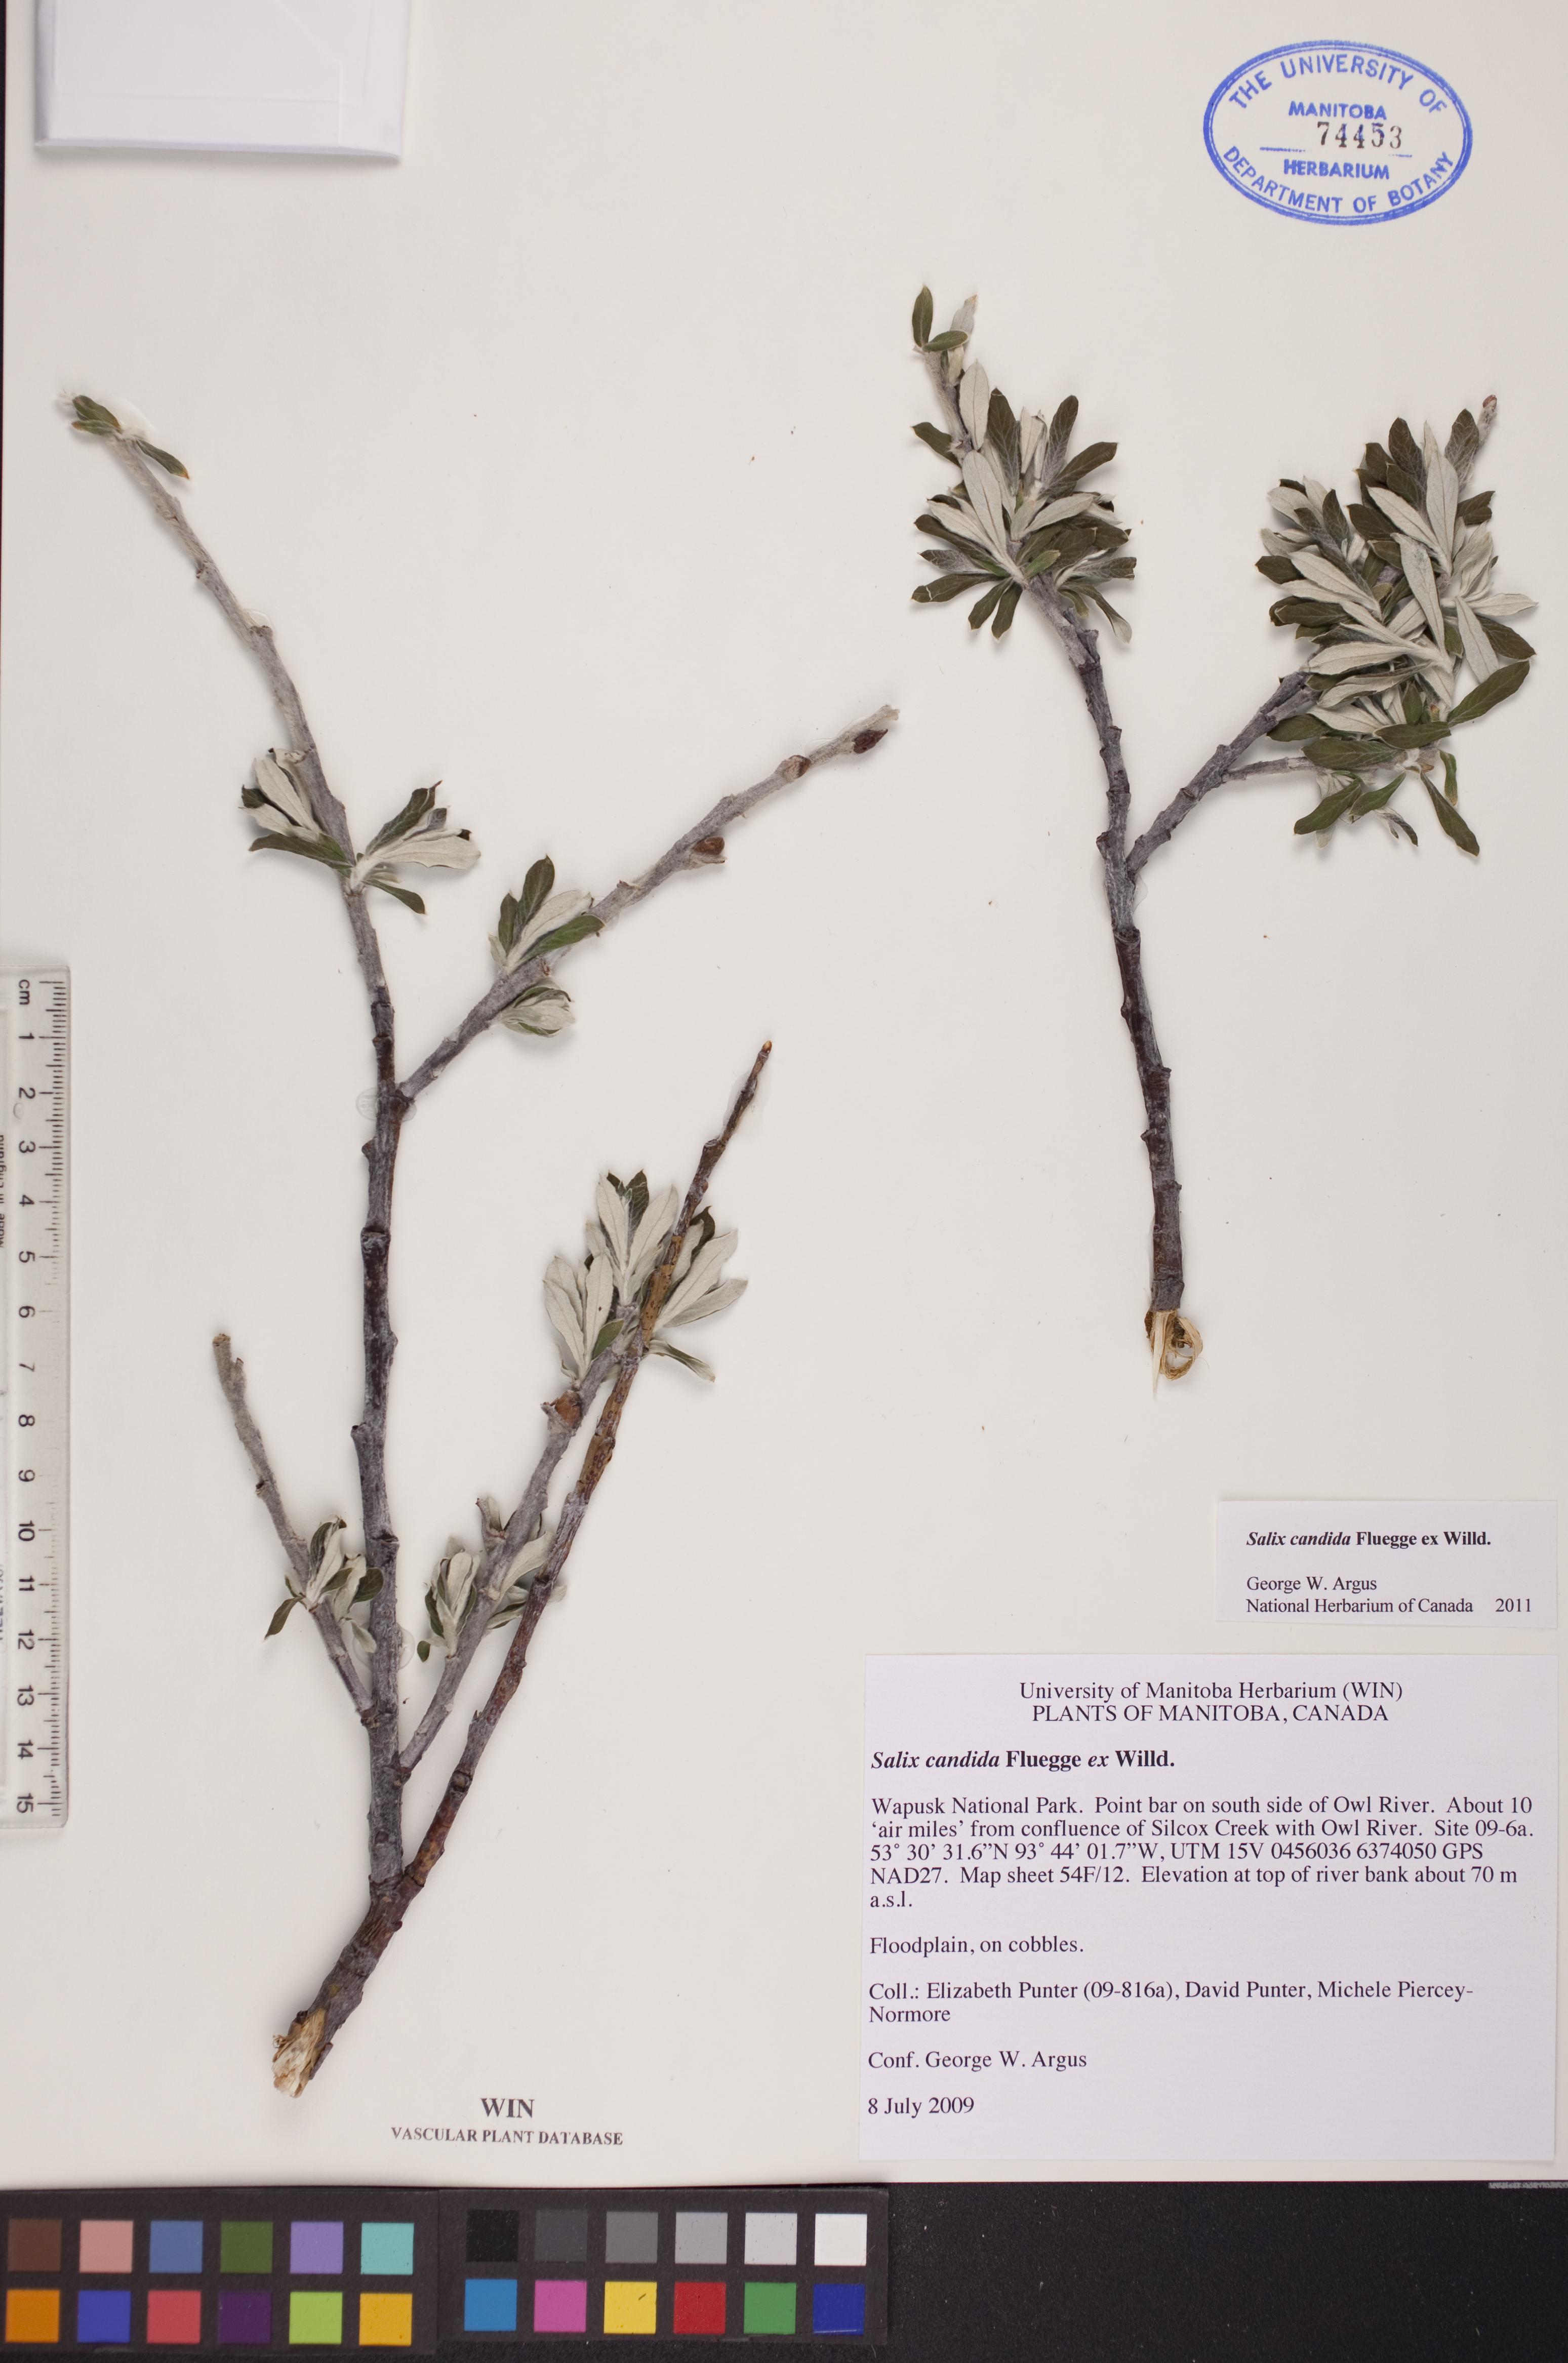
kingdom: Plantae
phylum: Tracheophyta
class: Magnoliopsida
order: Malpighiales
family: Salicaceae
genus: Salix
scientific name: Salix candida
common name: Hoary willow
